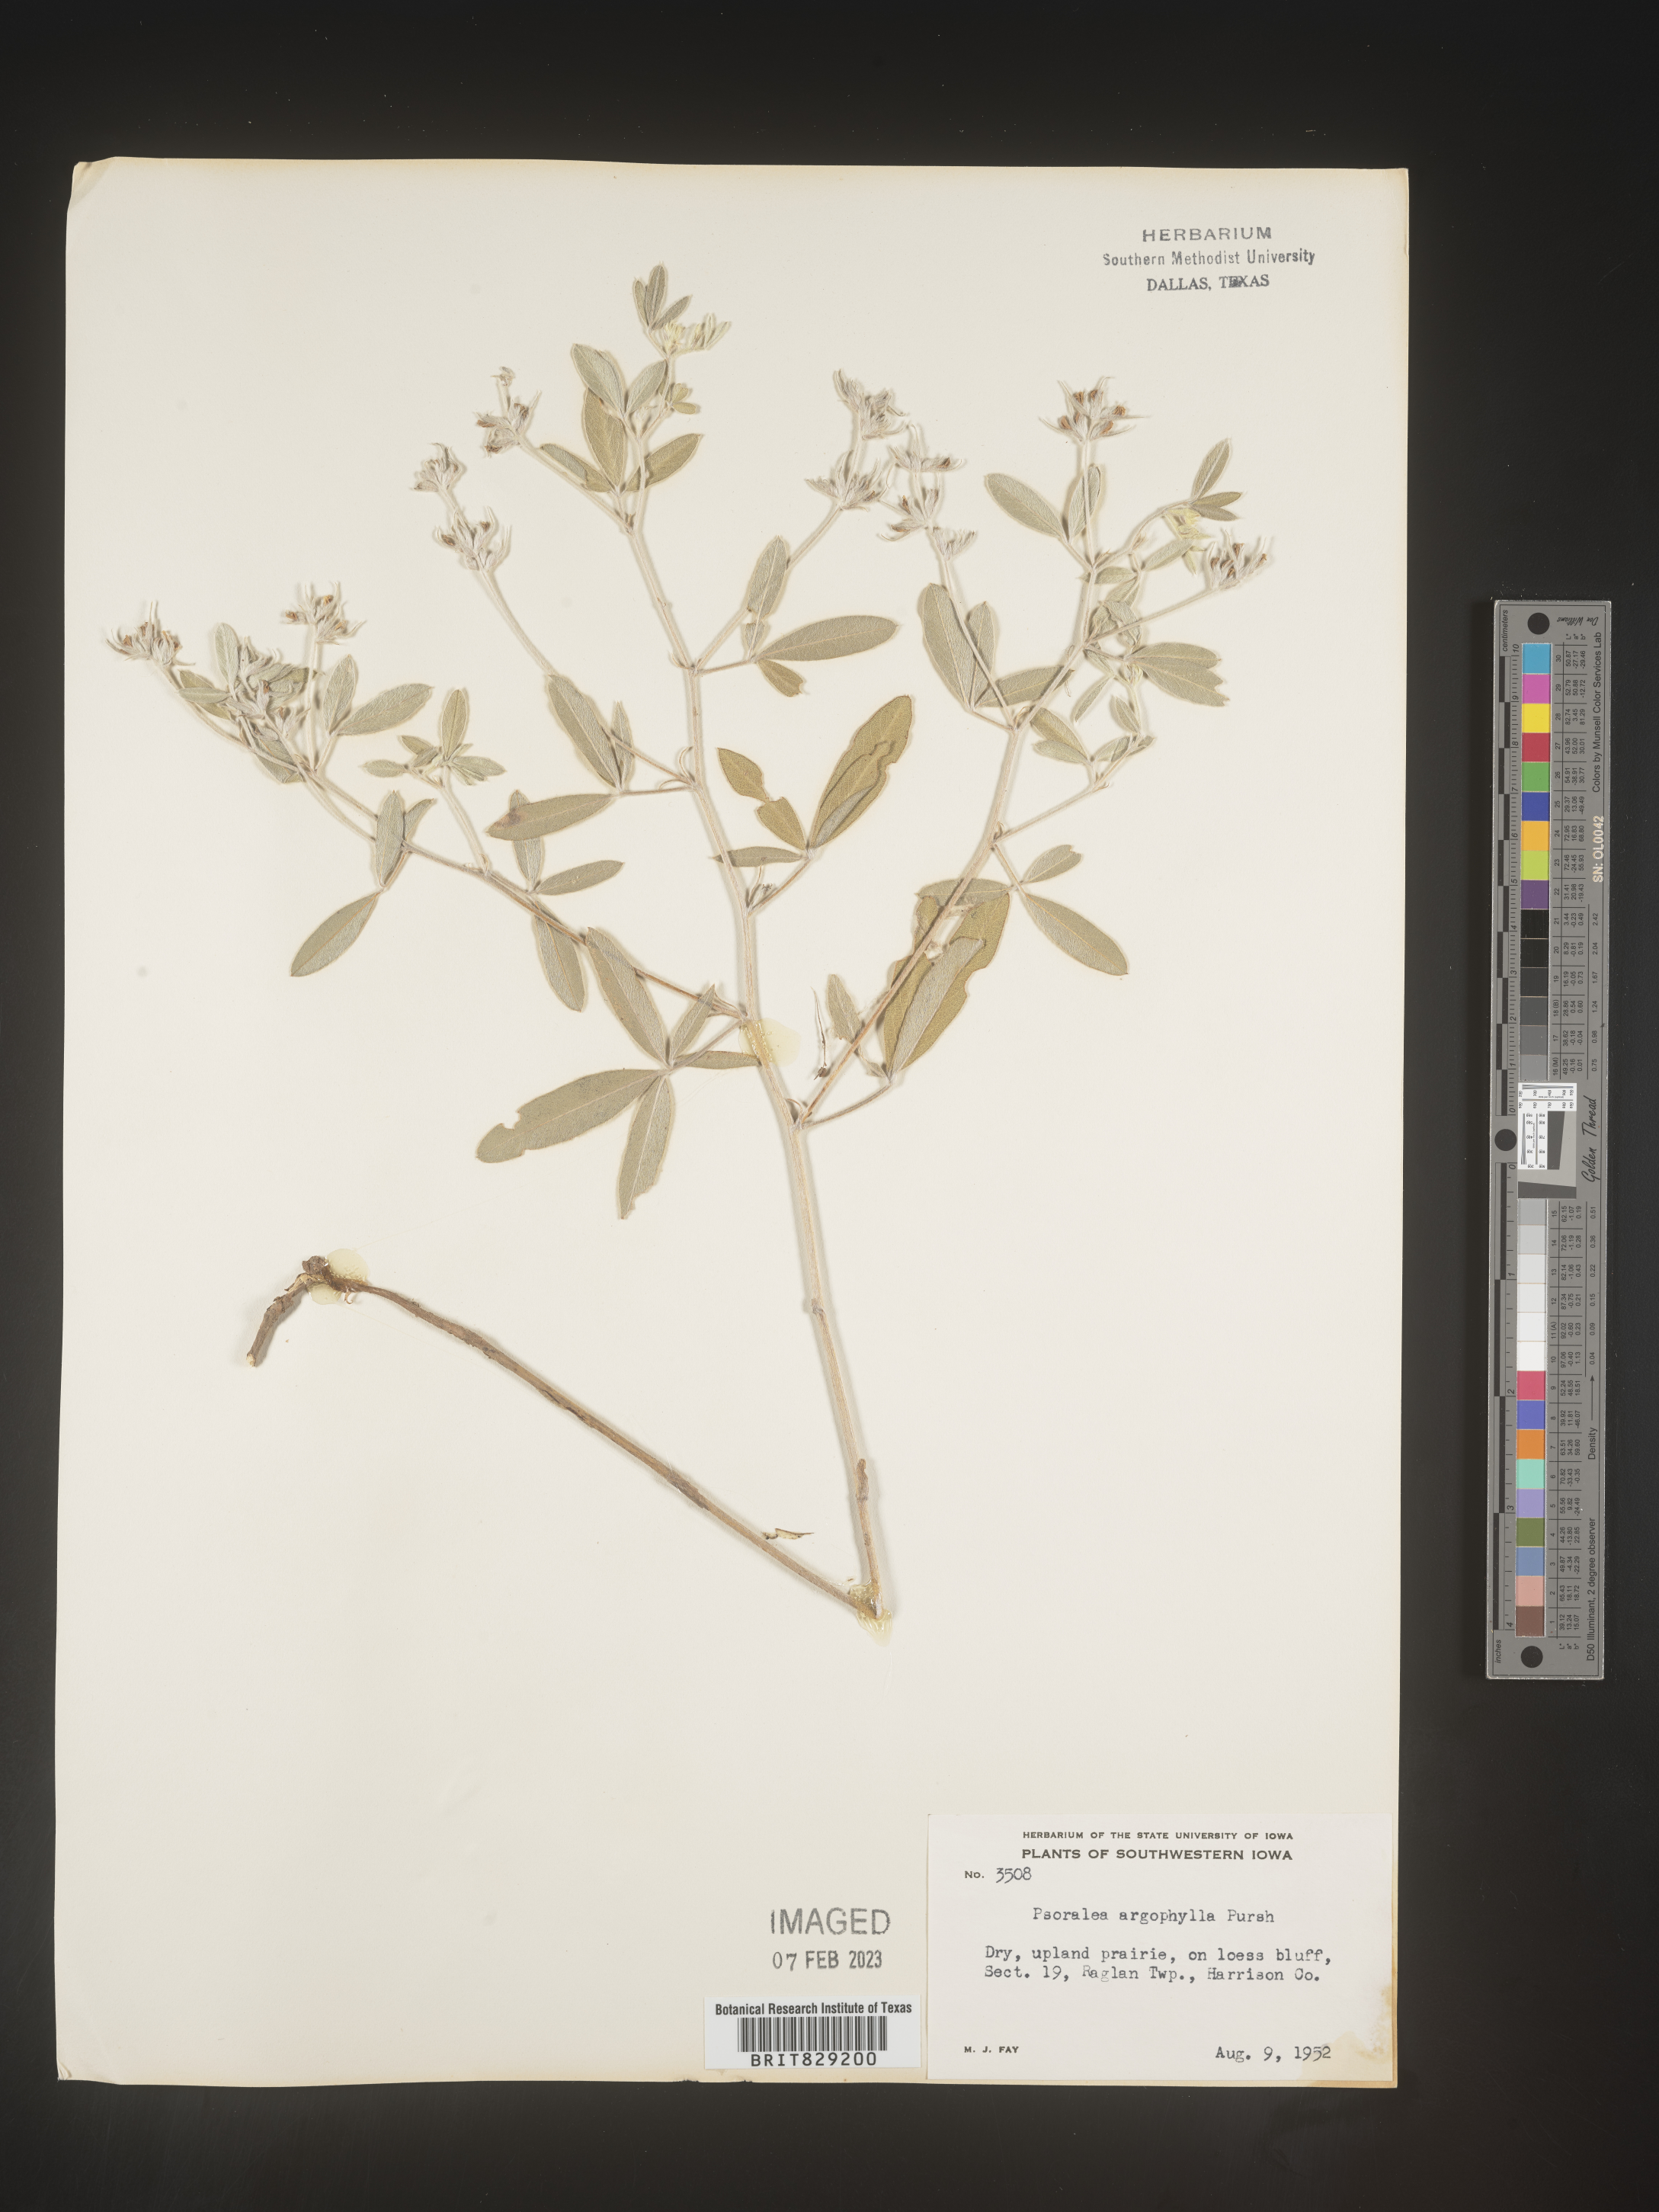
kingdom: Plantae
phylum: Tracheophyta
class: Magnoliopsida
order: Fabales
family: Fabaceae
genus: Pediomelum
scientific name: Pediomelum argophyllum
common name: Silver-leaved indian breadroot
